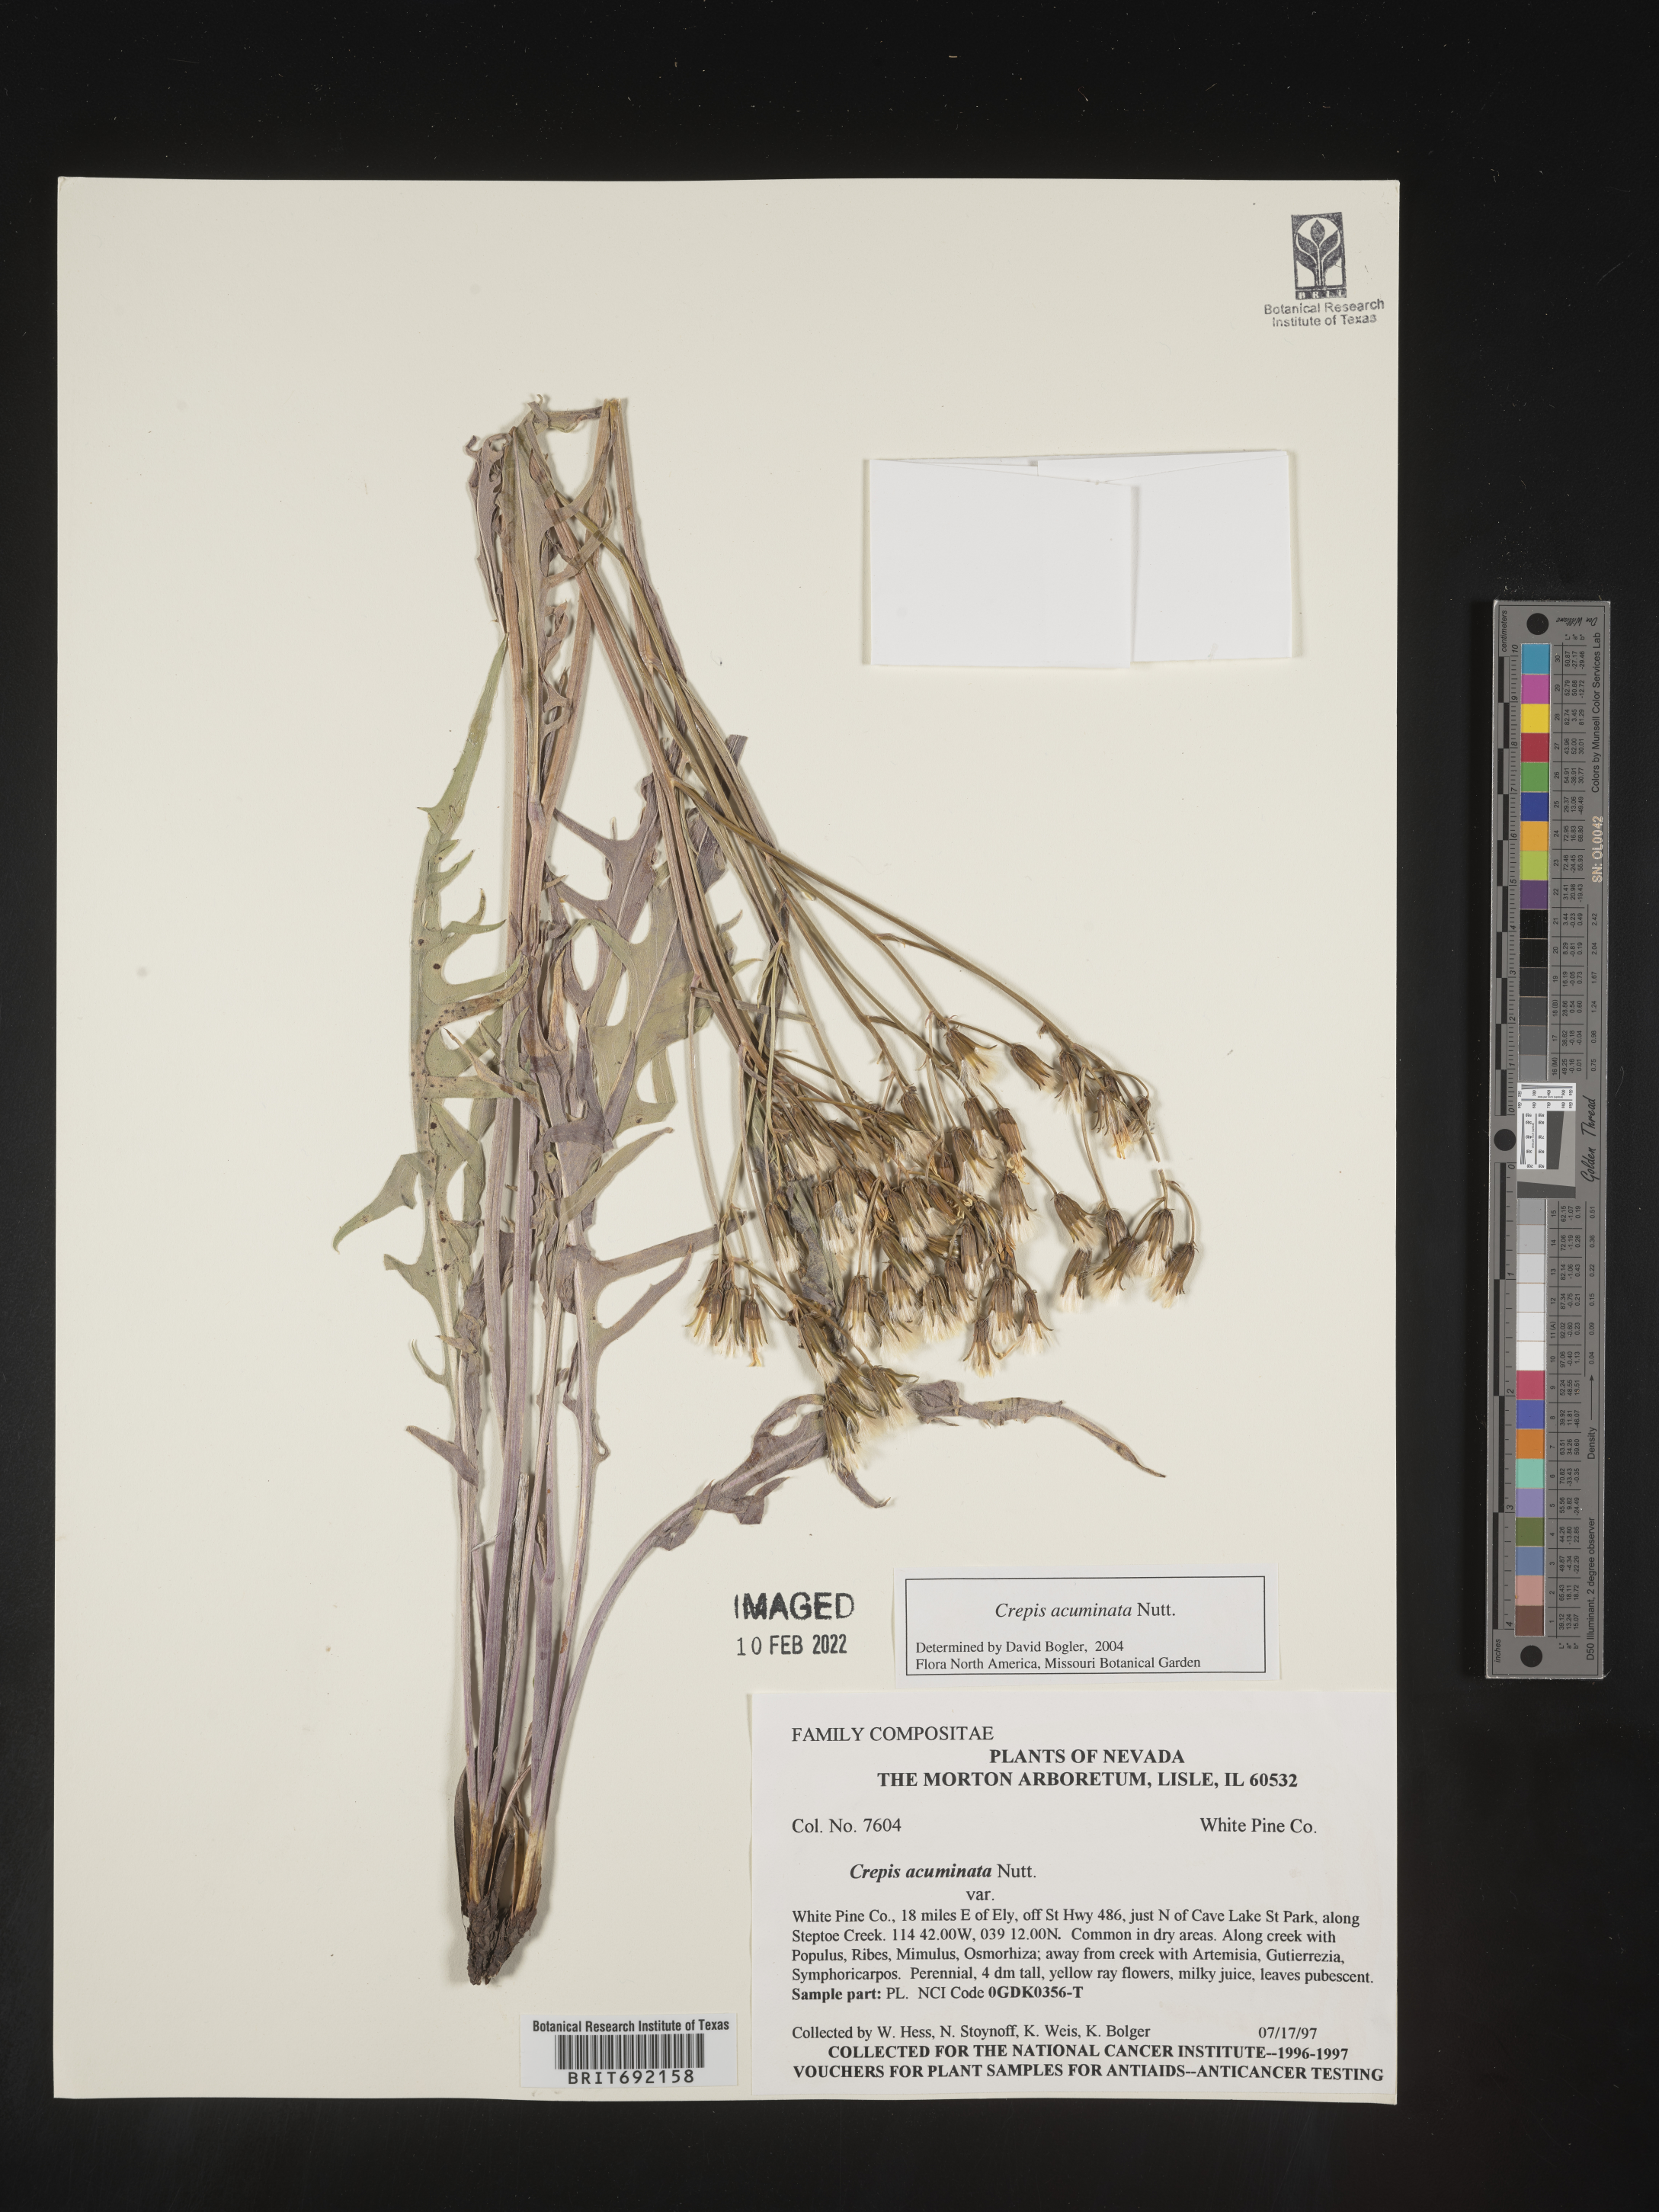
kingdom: Plantae
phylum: Tracheophyta
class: Magnoliopsida
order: Asterales
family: Asteraceae
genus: Crepis
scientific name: Crepis acuminata
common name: Longleaf hawk's-beard
